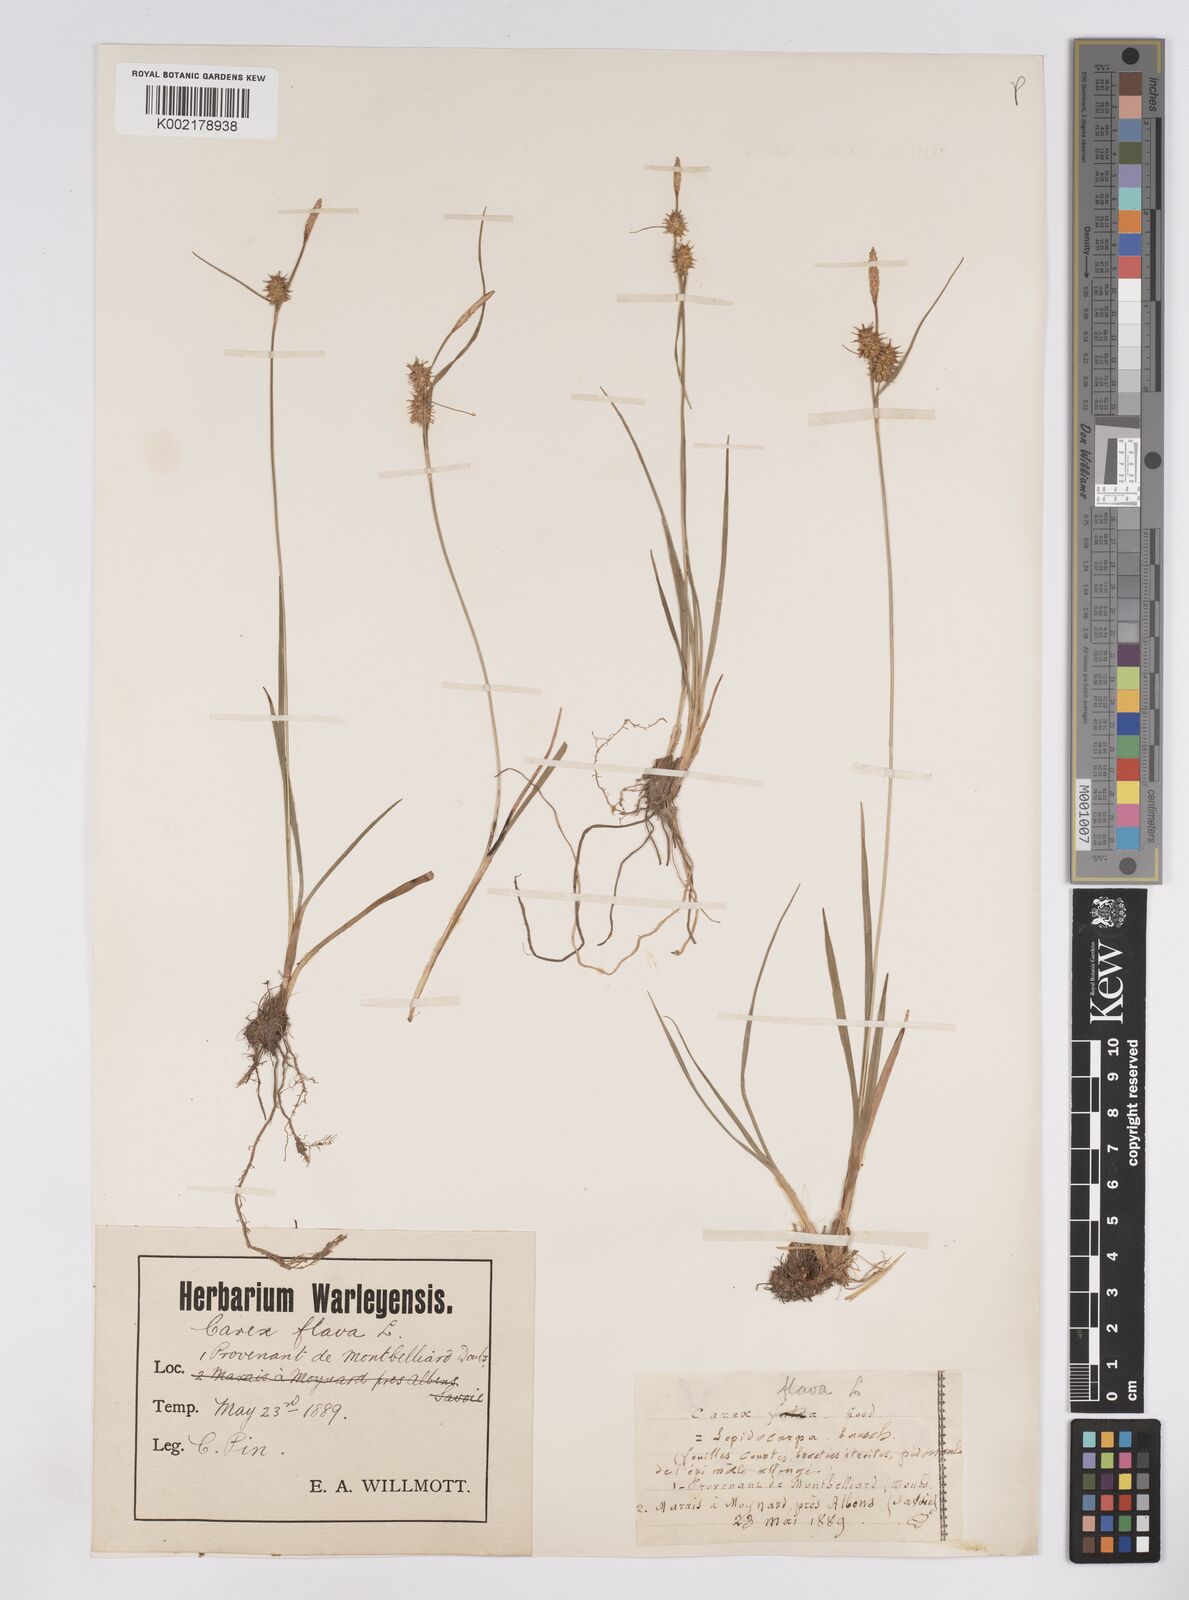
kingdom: Plantae
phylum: Tracheophyta
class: Liliopsida
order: Poales
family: Cyperaceae
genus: Carex
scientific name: Carex lepidocarpa
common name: Long-stalked yellow-sedge
